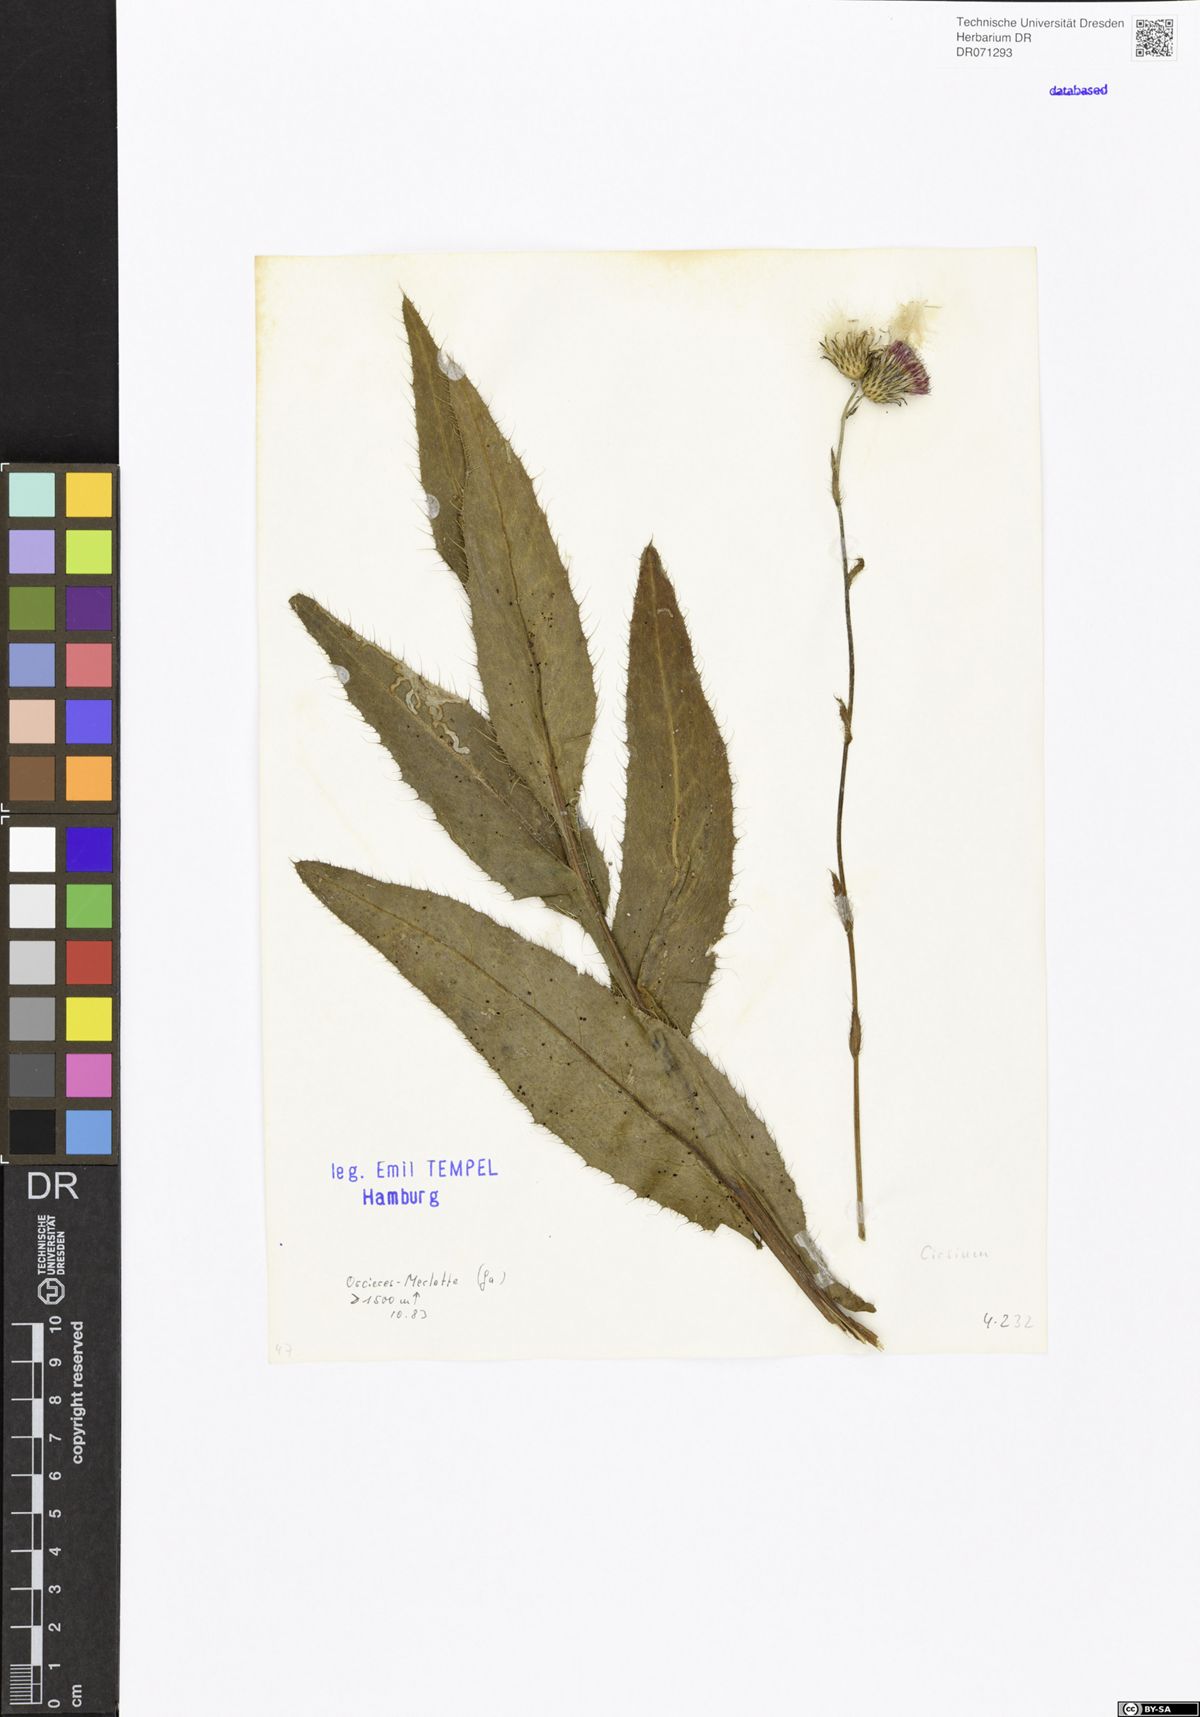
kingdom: Plantae
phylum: Tracheophyta
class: Magnoliopsida
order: Asterales
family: Asteraceae
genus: Cirsium
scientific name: Cirsium
